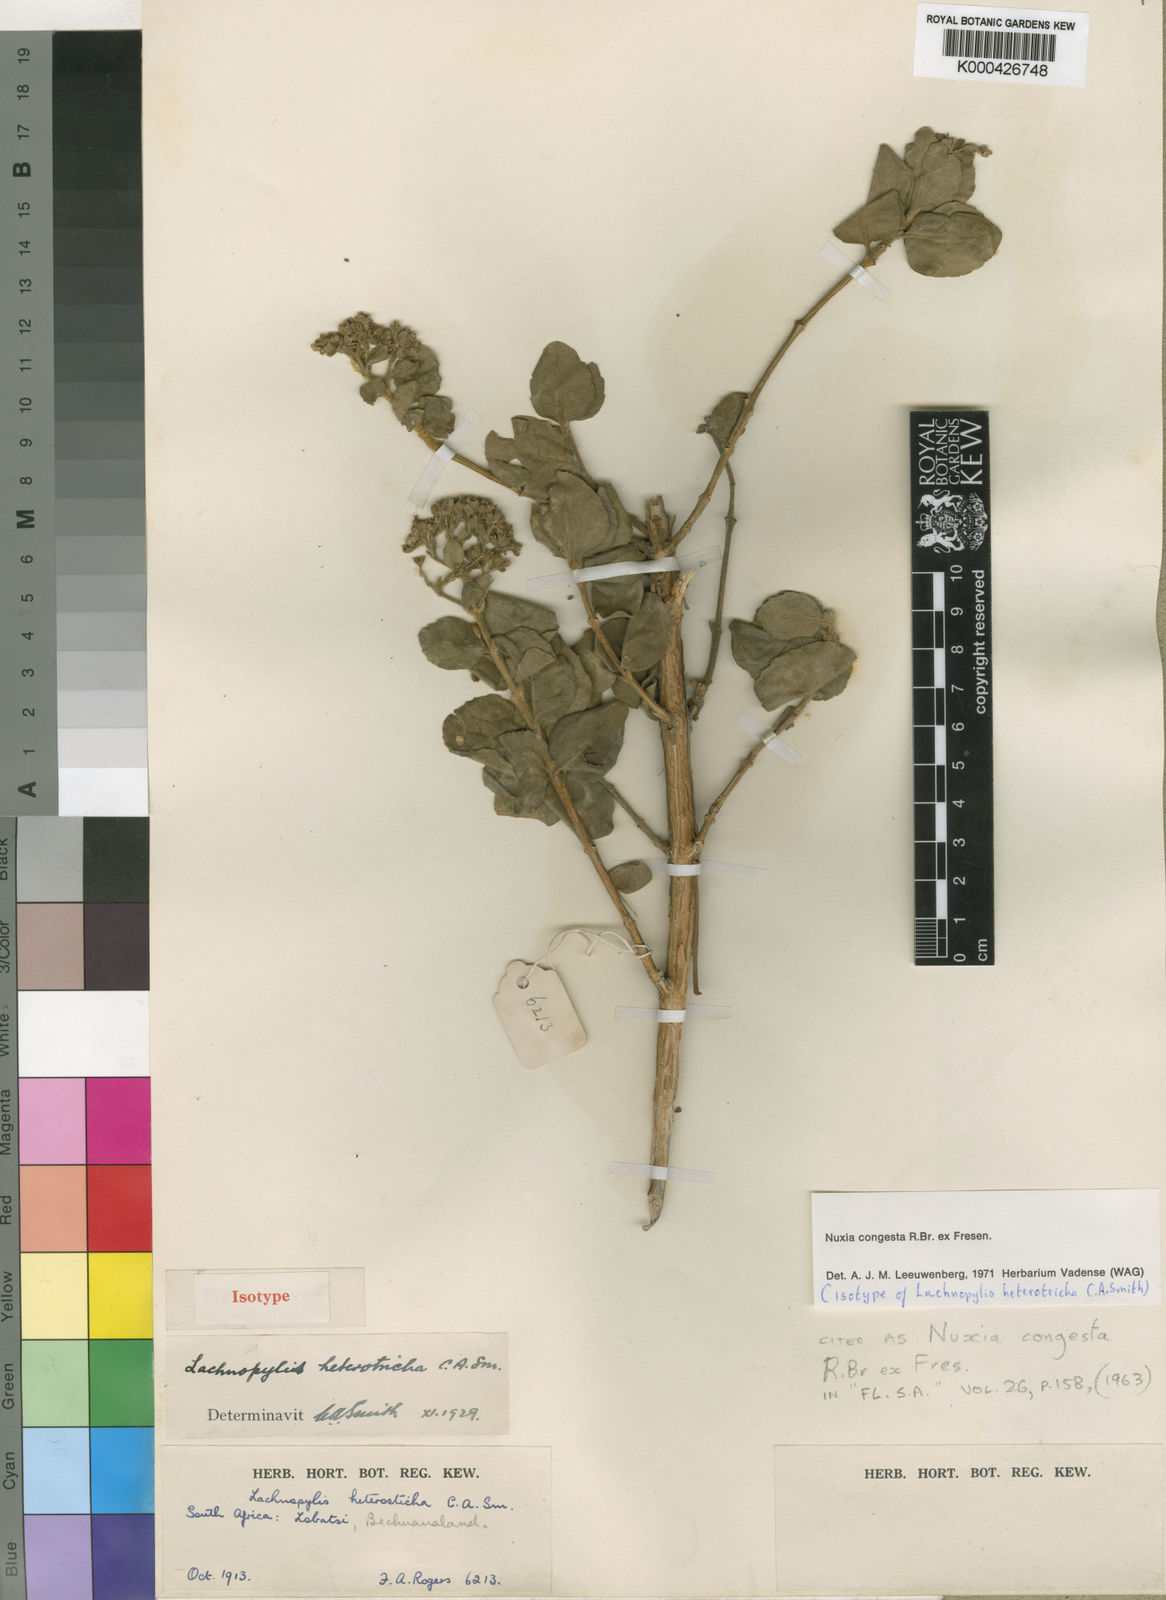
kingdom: Plantae
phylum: Tracheophyta
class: Magnoliopsida
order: Lamiales
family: Stilbaceae
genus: Nuxia
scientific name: Nuxia congesta
